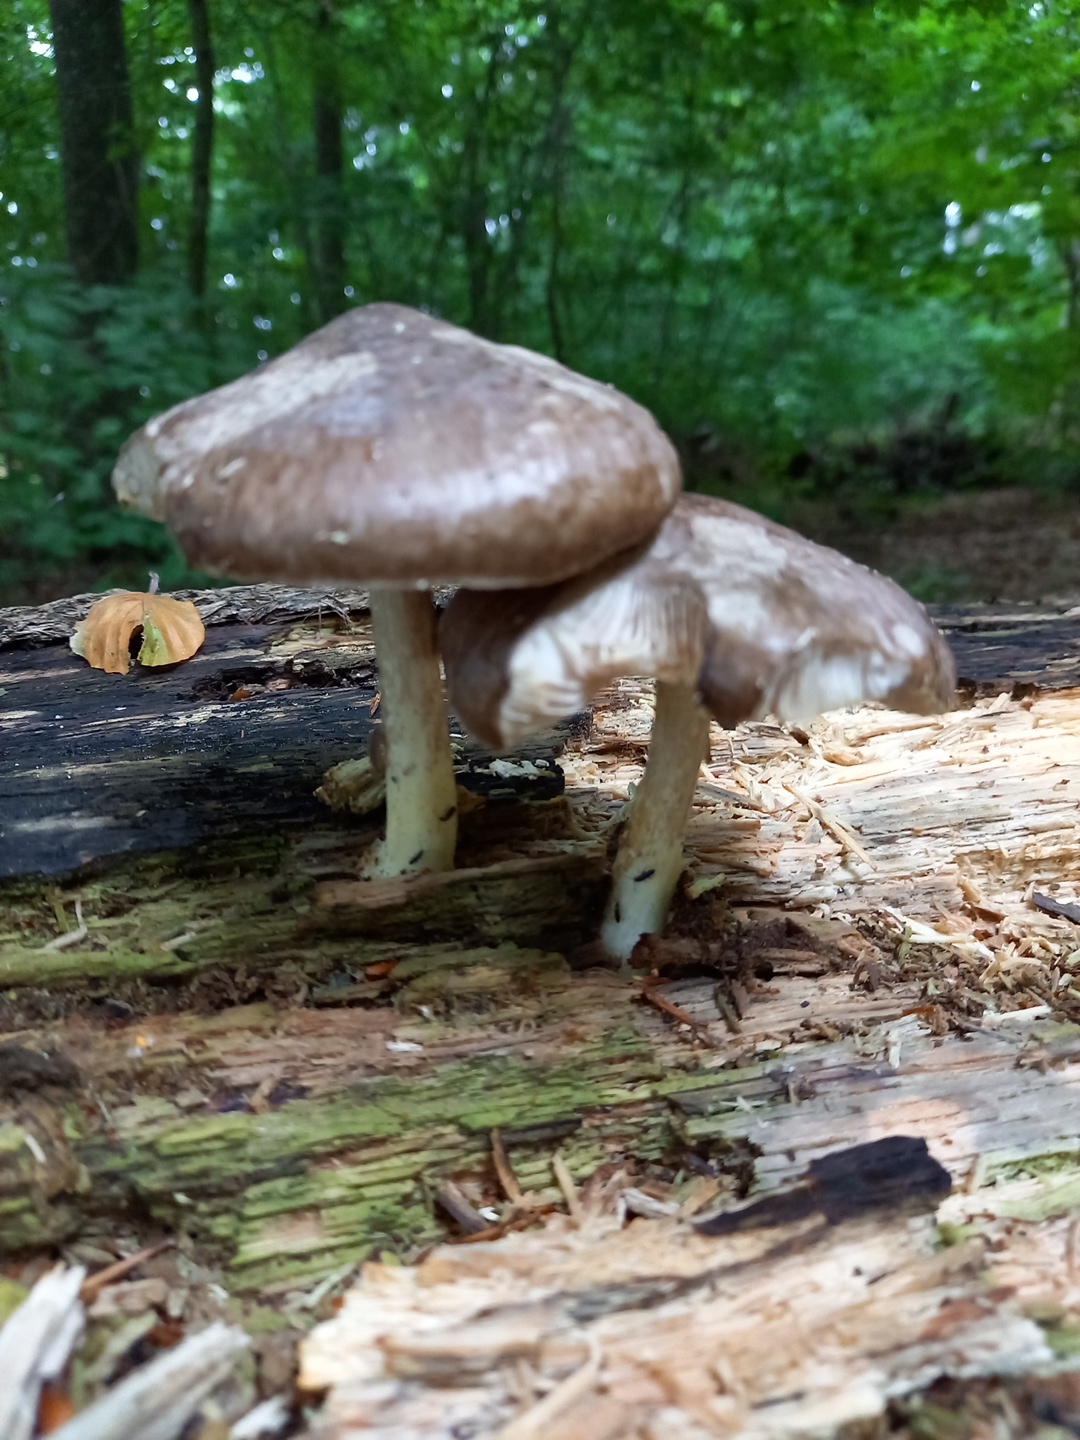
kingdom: Fungi
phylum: Basidiomycota
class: Agaricomycetes
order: Agaricales
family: Pluteaceae
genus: Pluteus
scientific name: Pluteus cervinus
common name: sodfarvet skærmhat
